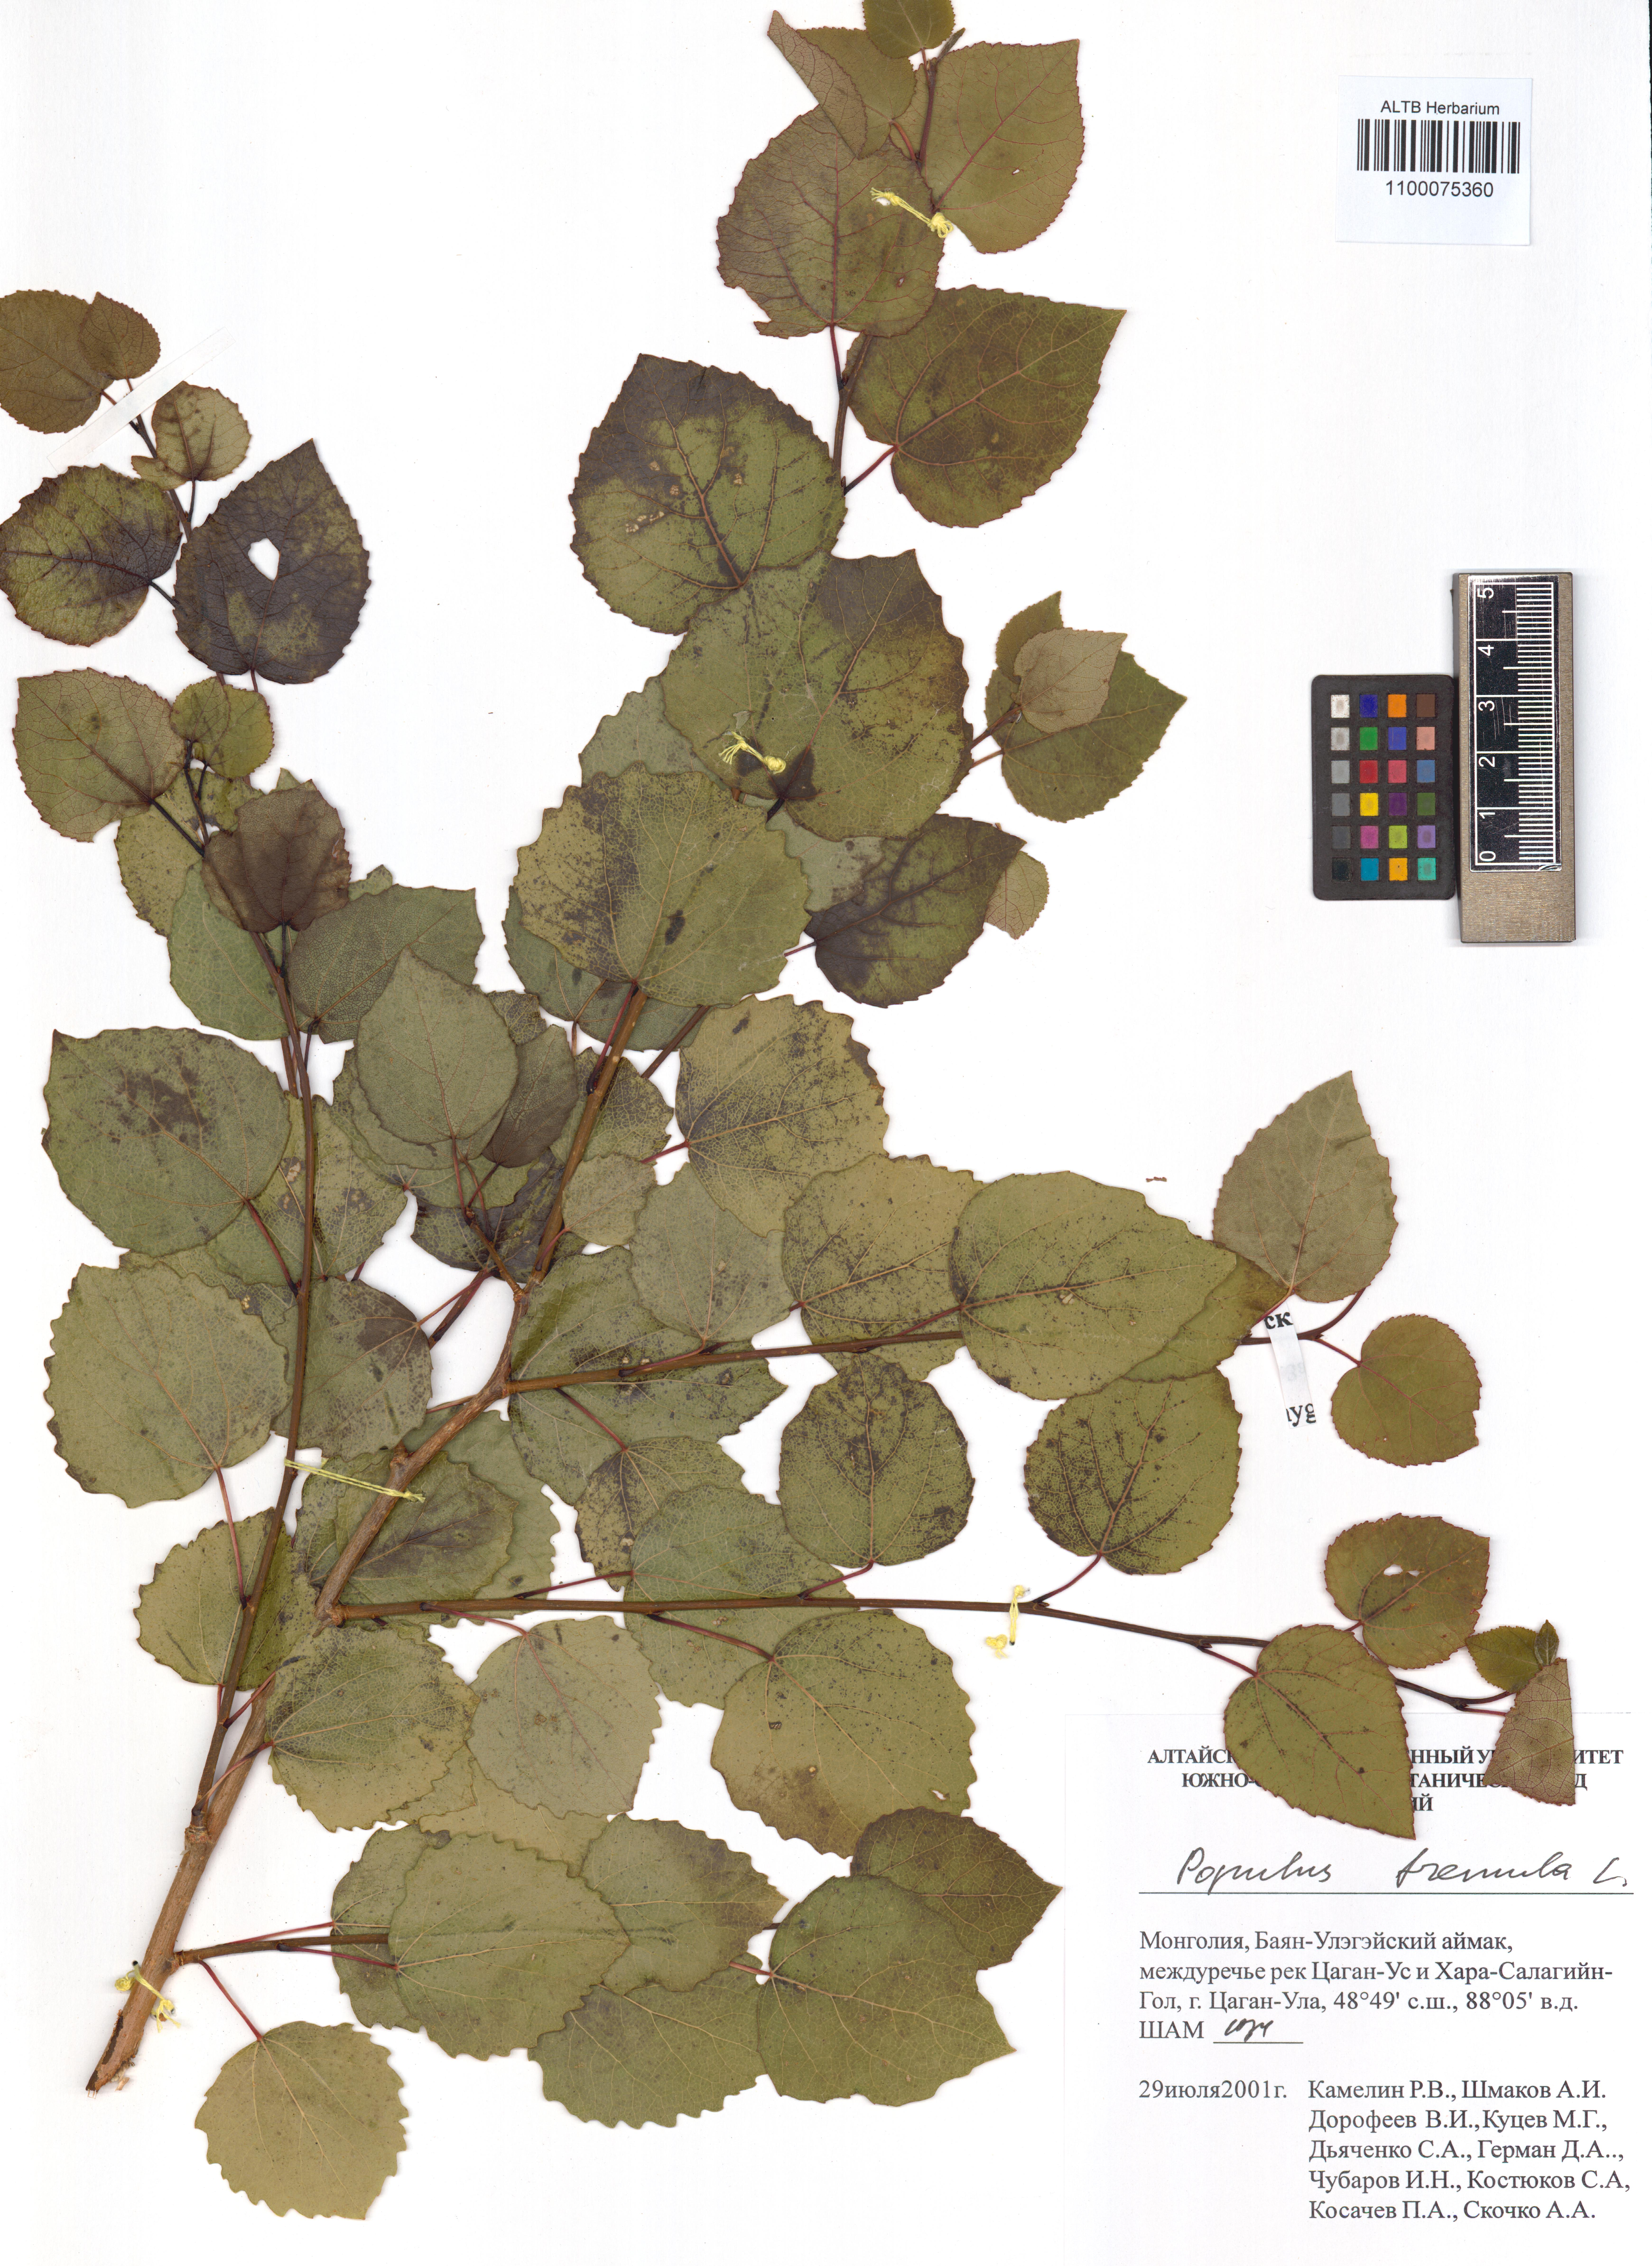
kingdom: Plantae
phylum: Tracheophyta
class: Magnoliopsida
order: Malpighiales
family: Salicaceae
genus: Populus
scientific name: Populus tremula
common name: European aspen
